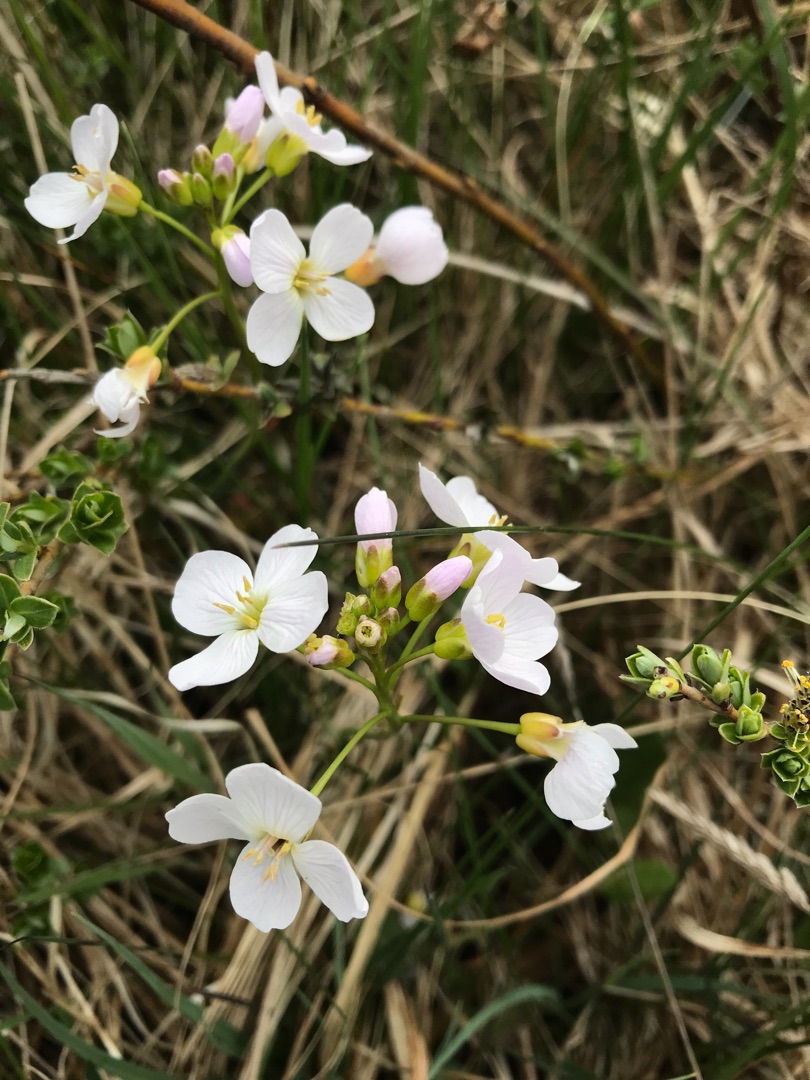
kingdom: Plantae
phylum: Tracheophyta
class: Magnoliopsida
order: Brassicales
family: Brassicaceae
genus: Cardamine
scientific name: Cardamine pratensis
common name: Engkarse
